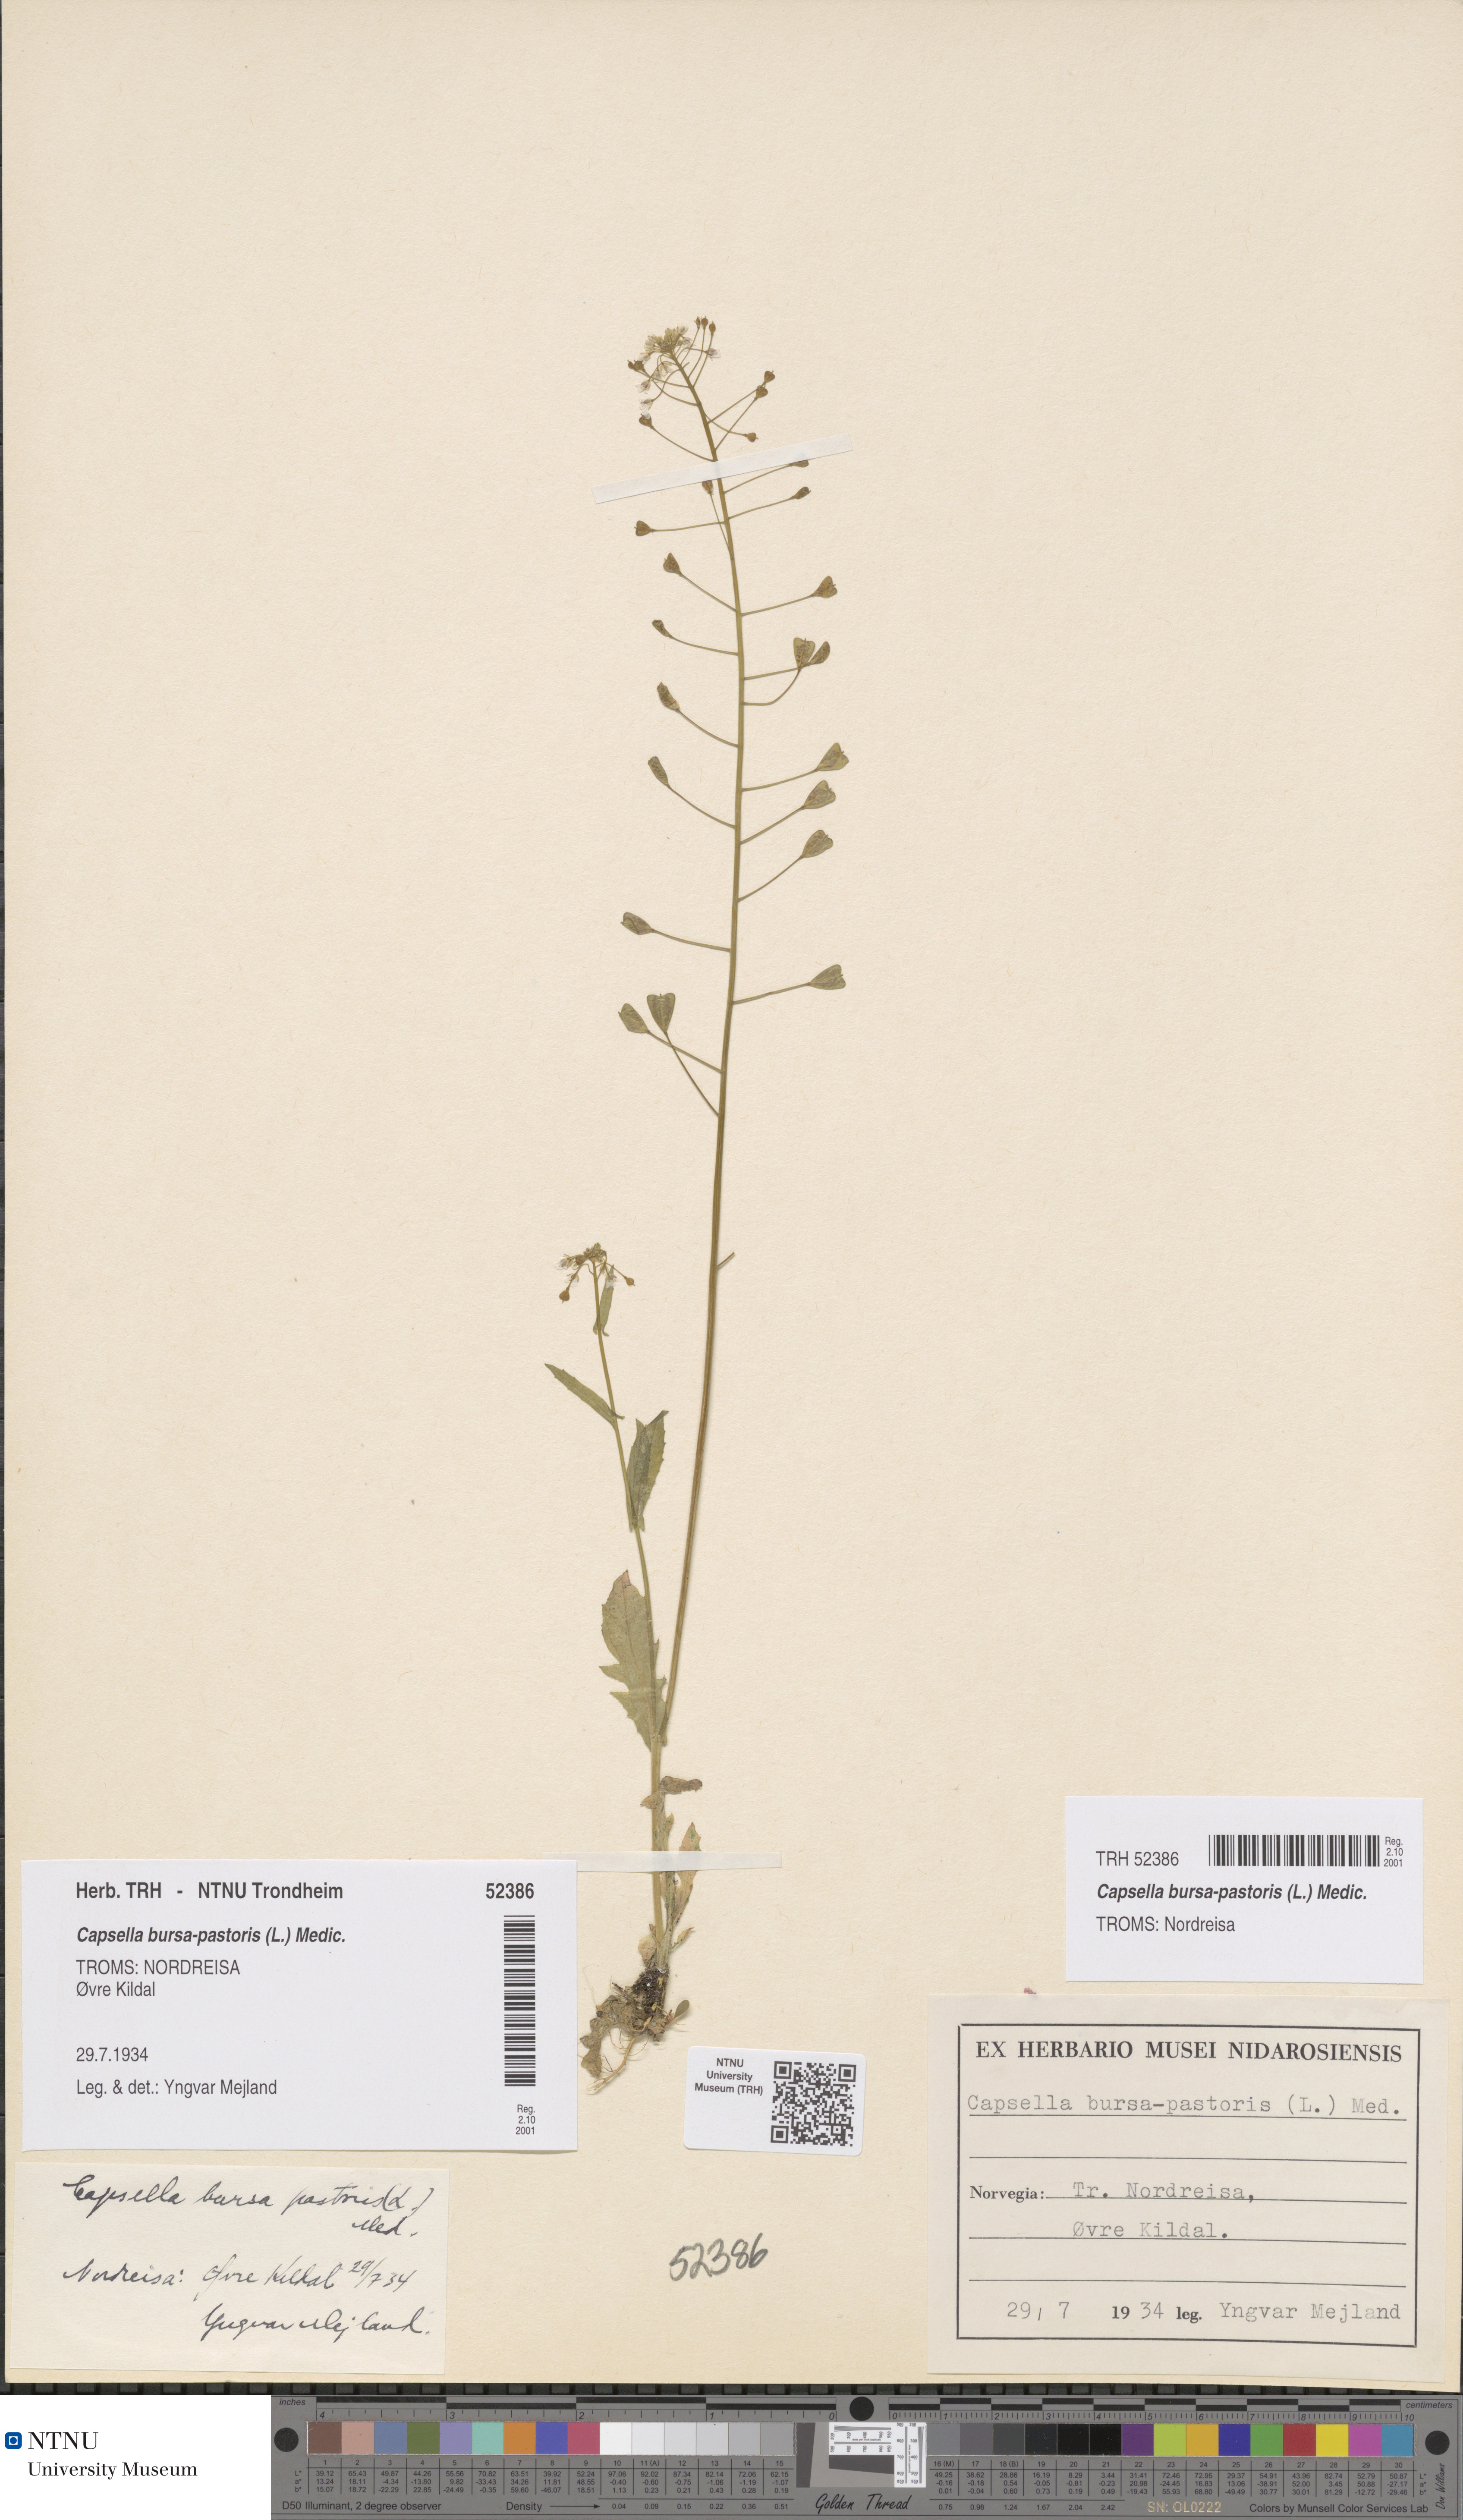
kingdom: Plantae
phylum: Tracheophyta
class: Magnoliopsida
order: Brassicales
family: Brassicaceae
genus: Capsella
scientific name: Capsella bursa-pastoris
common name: Shepherd's purse
